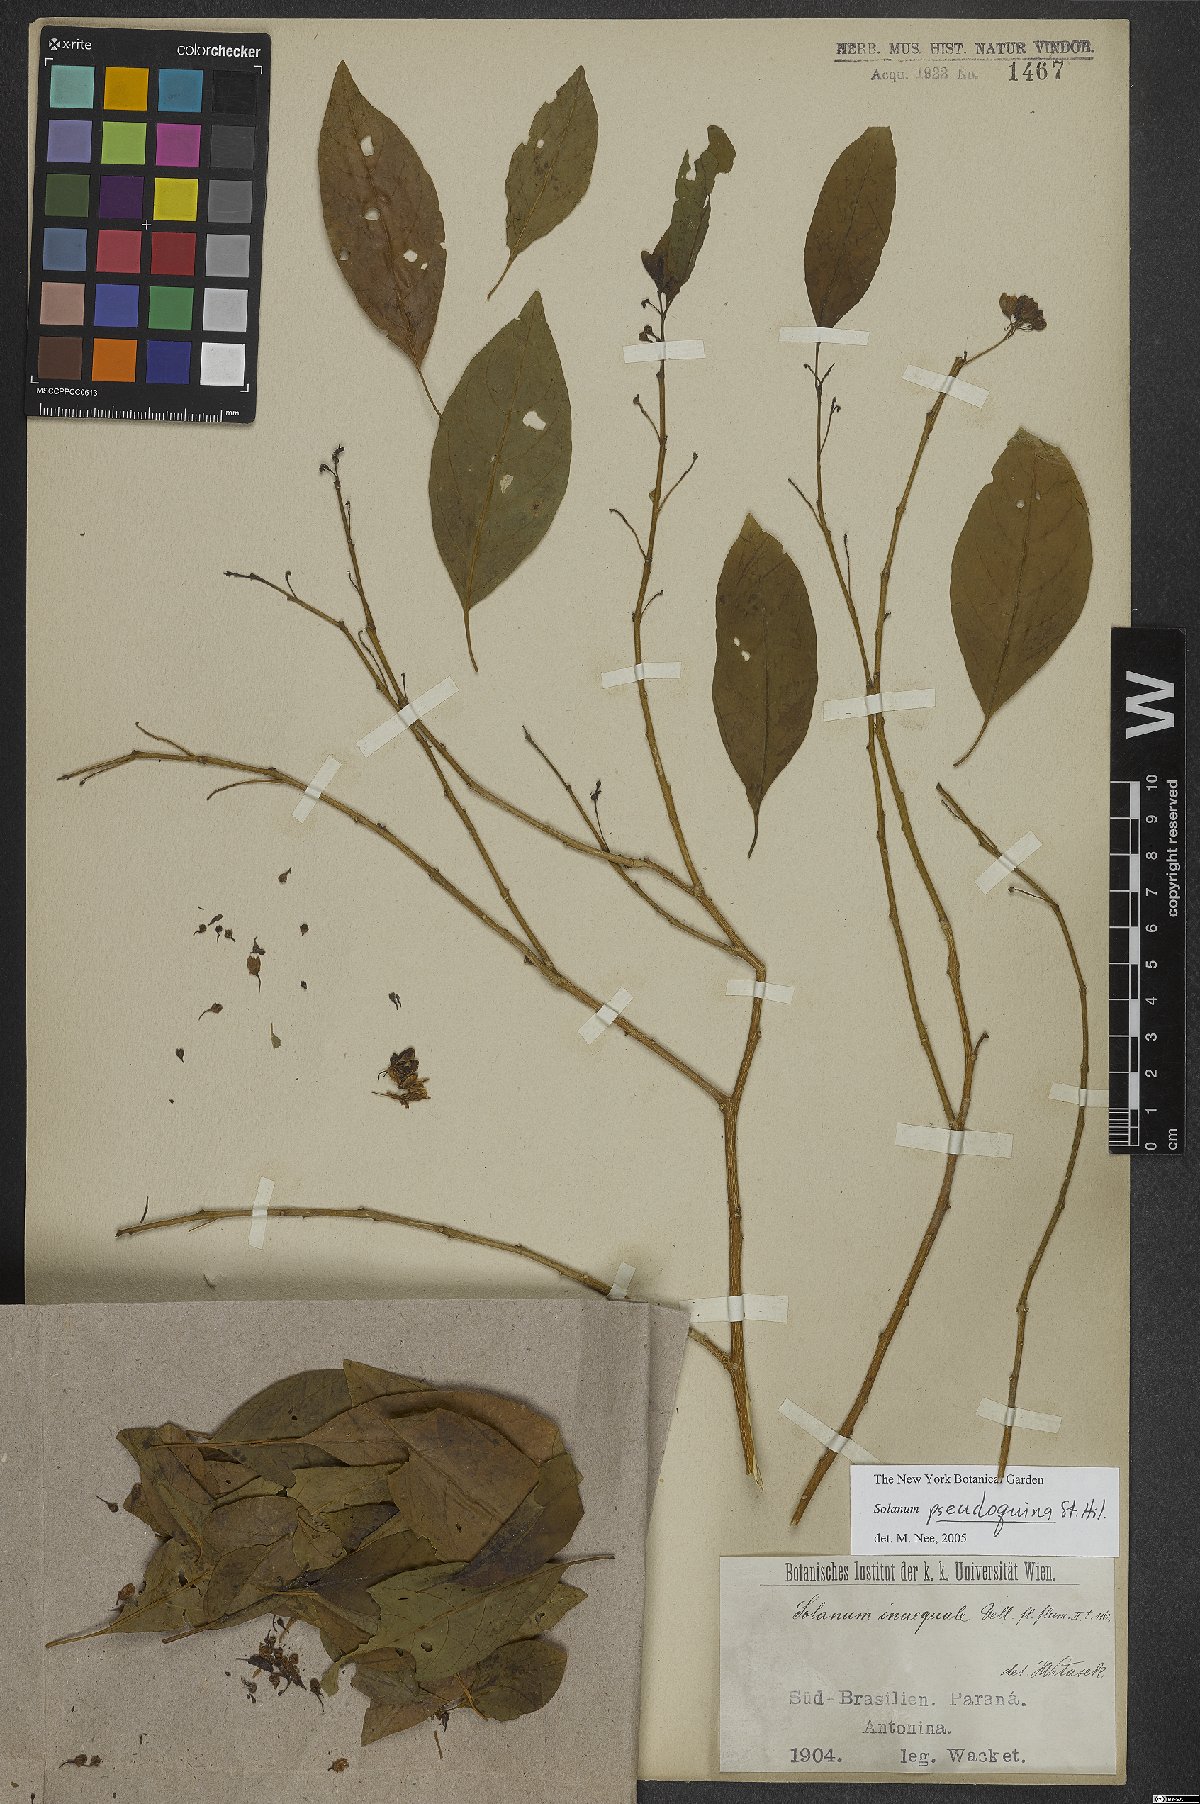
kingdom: Plantae
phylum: Tracheophyta
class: Magnoliopsida
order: Solanales
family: Solanaceae
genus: Solanum
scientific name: Solanum pseudoquina
